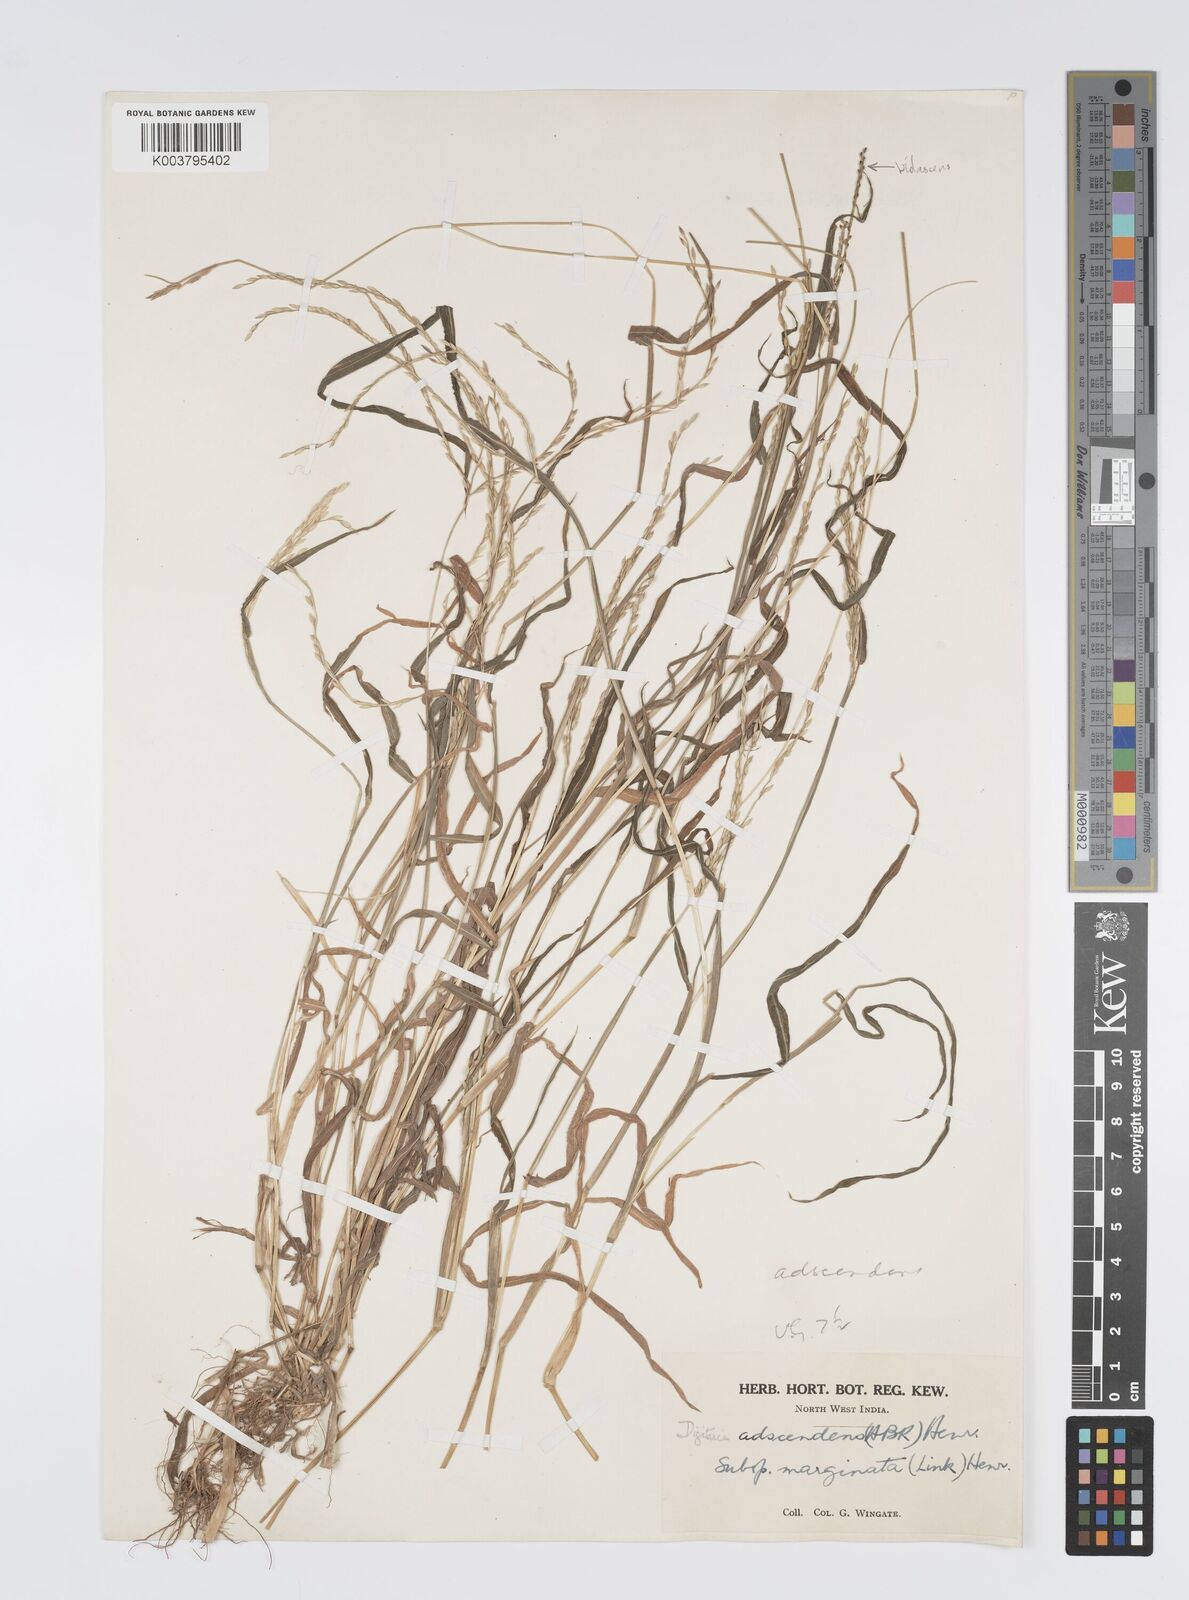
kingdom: Plantae
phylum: Tracheophyta
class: Liliopsida
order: Poales
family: Poaceae
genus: Digitaria
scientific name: Digitaria ciliaris
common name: Tropical finger-grass
